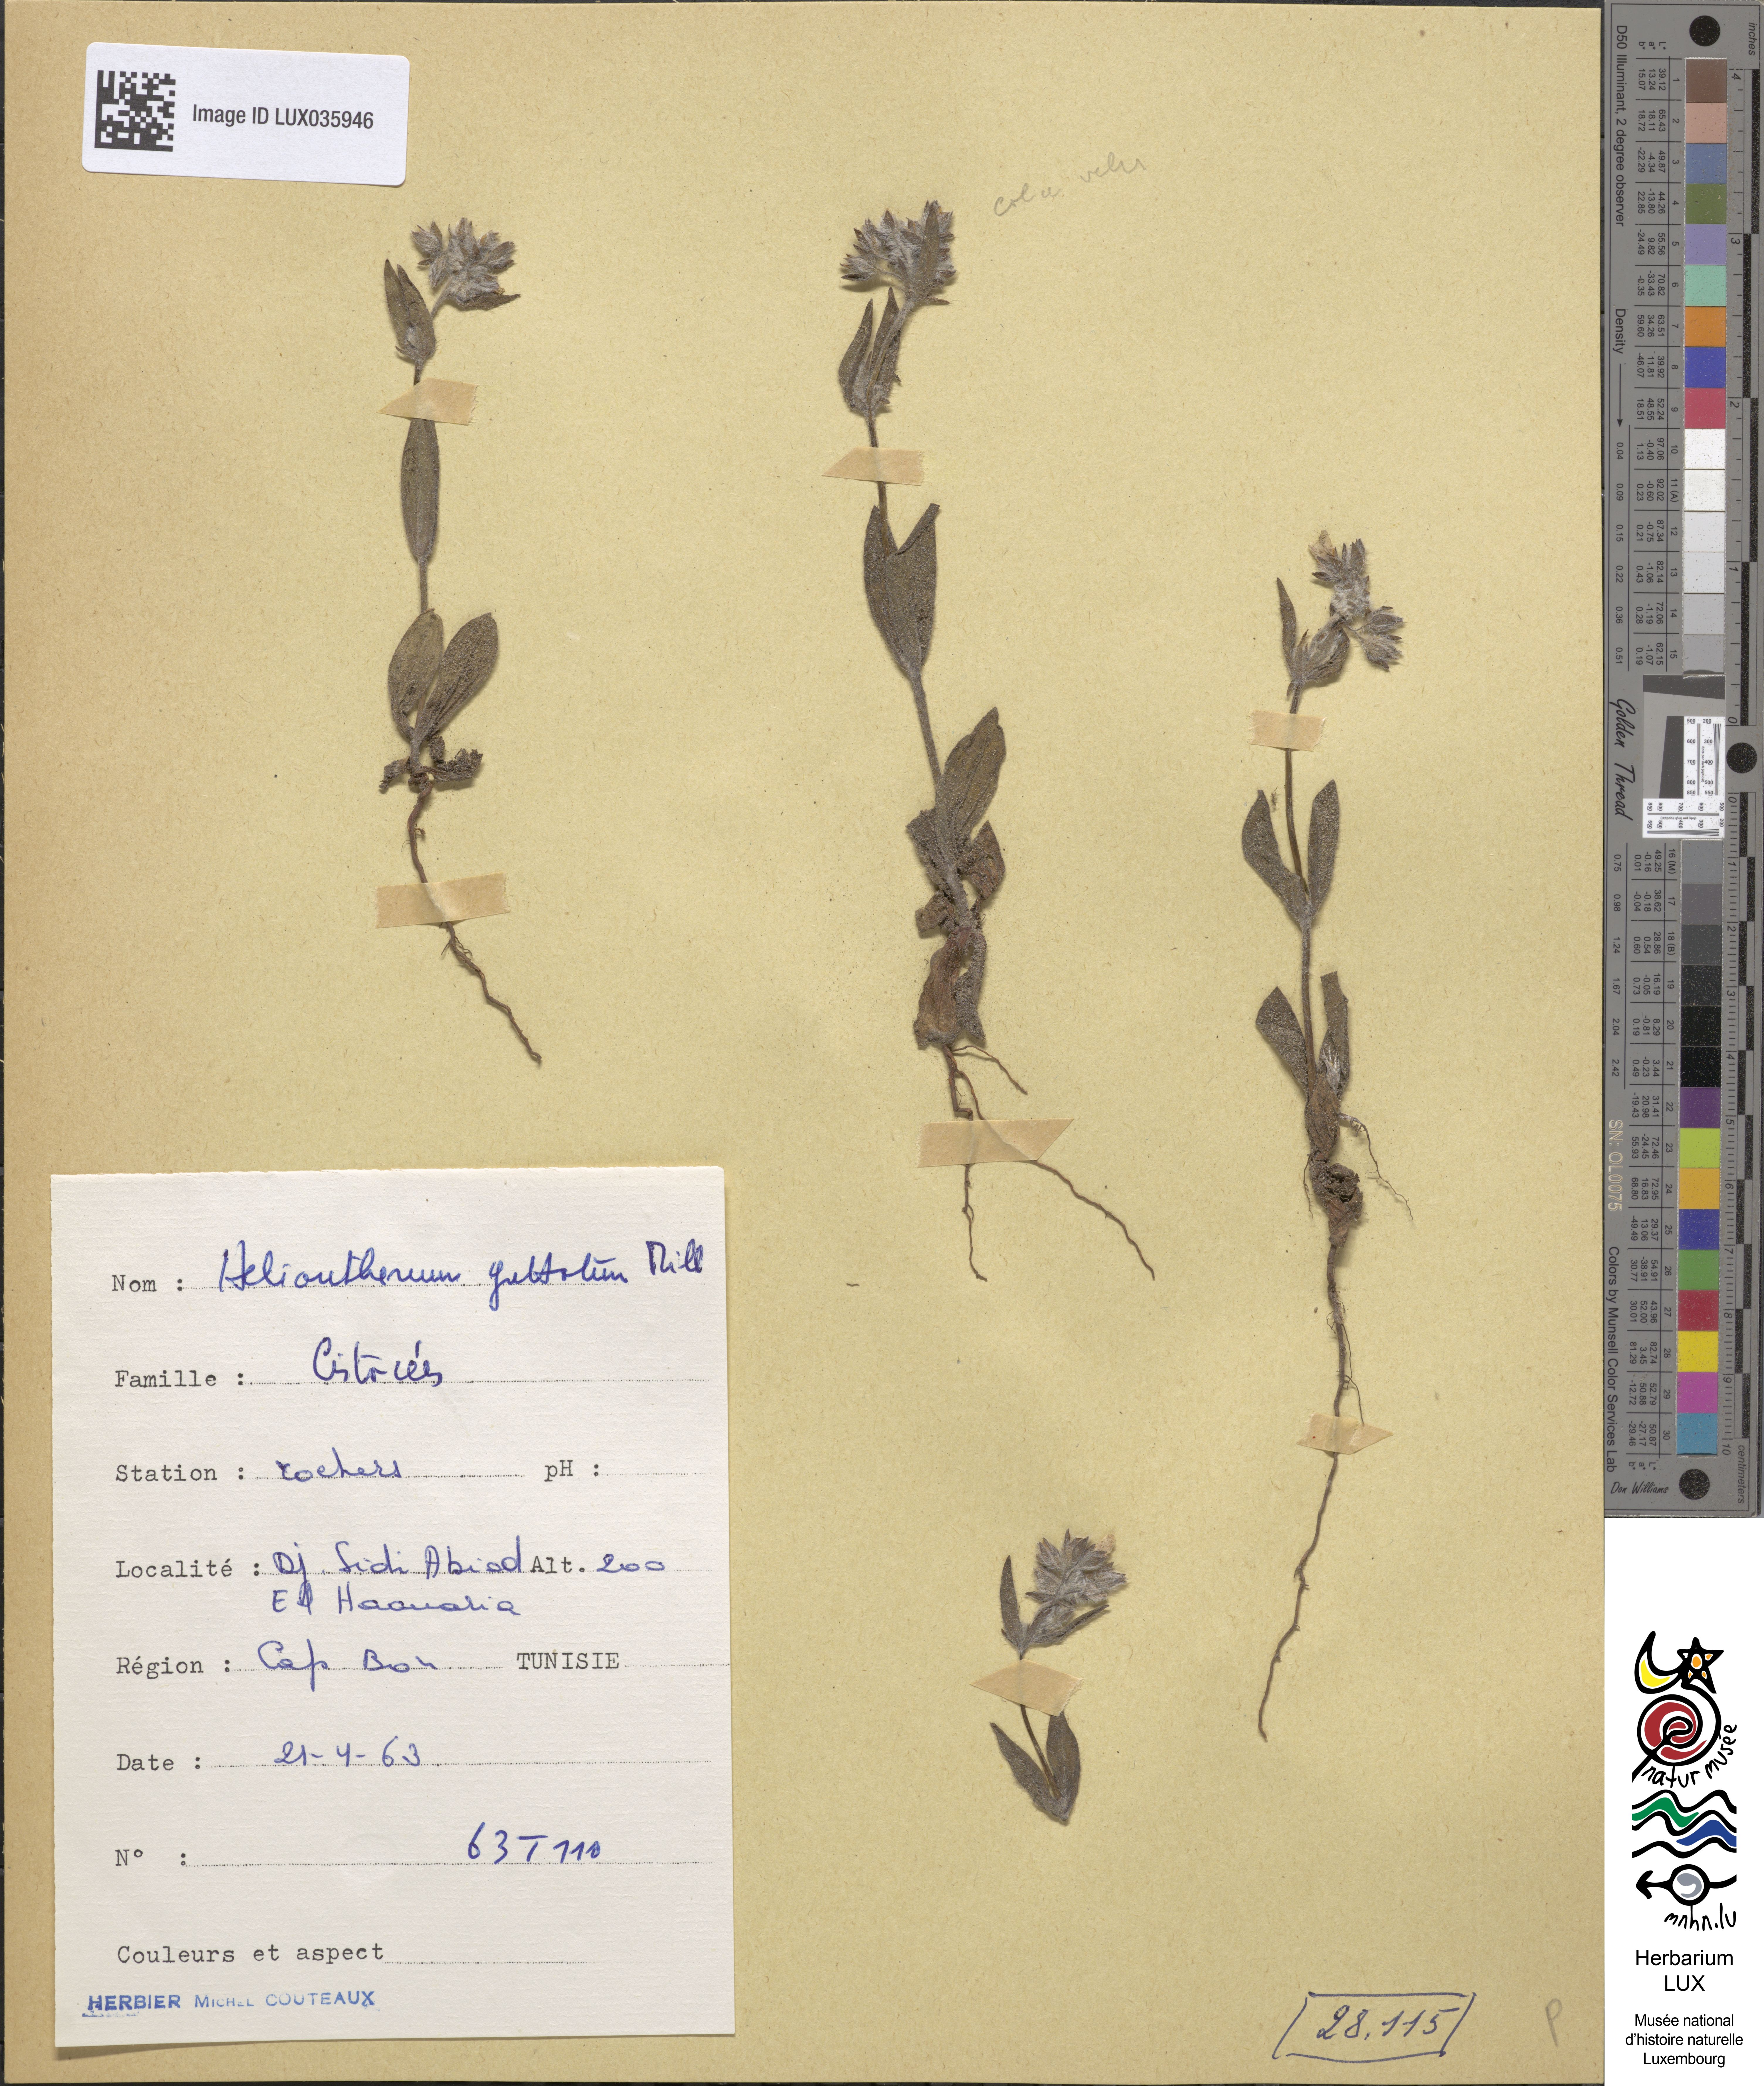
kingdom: Plantae
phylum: Tracheophyta
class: Magnoliopsida
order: Malvales
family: Cistaceae
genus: Tuberaria
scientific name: Tuberaria guttata
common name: Spotted rock-rose
